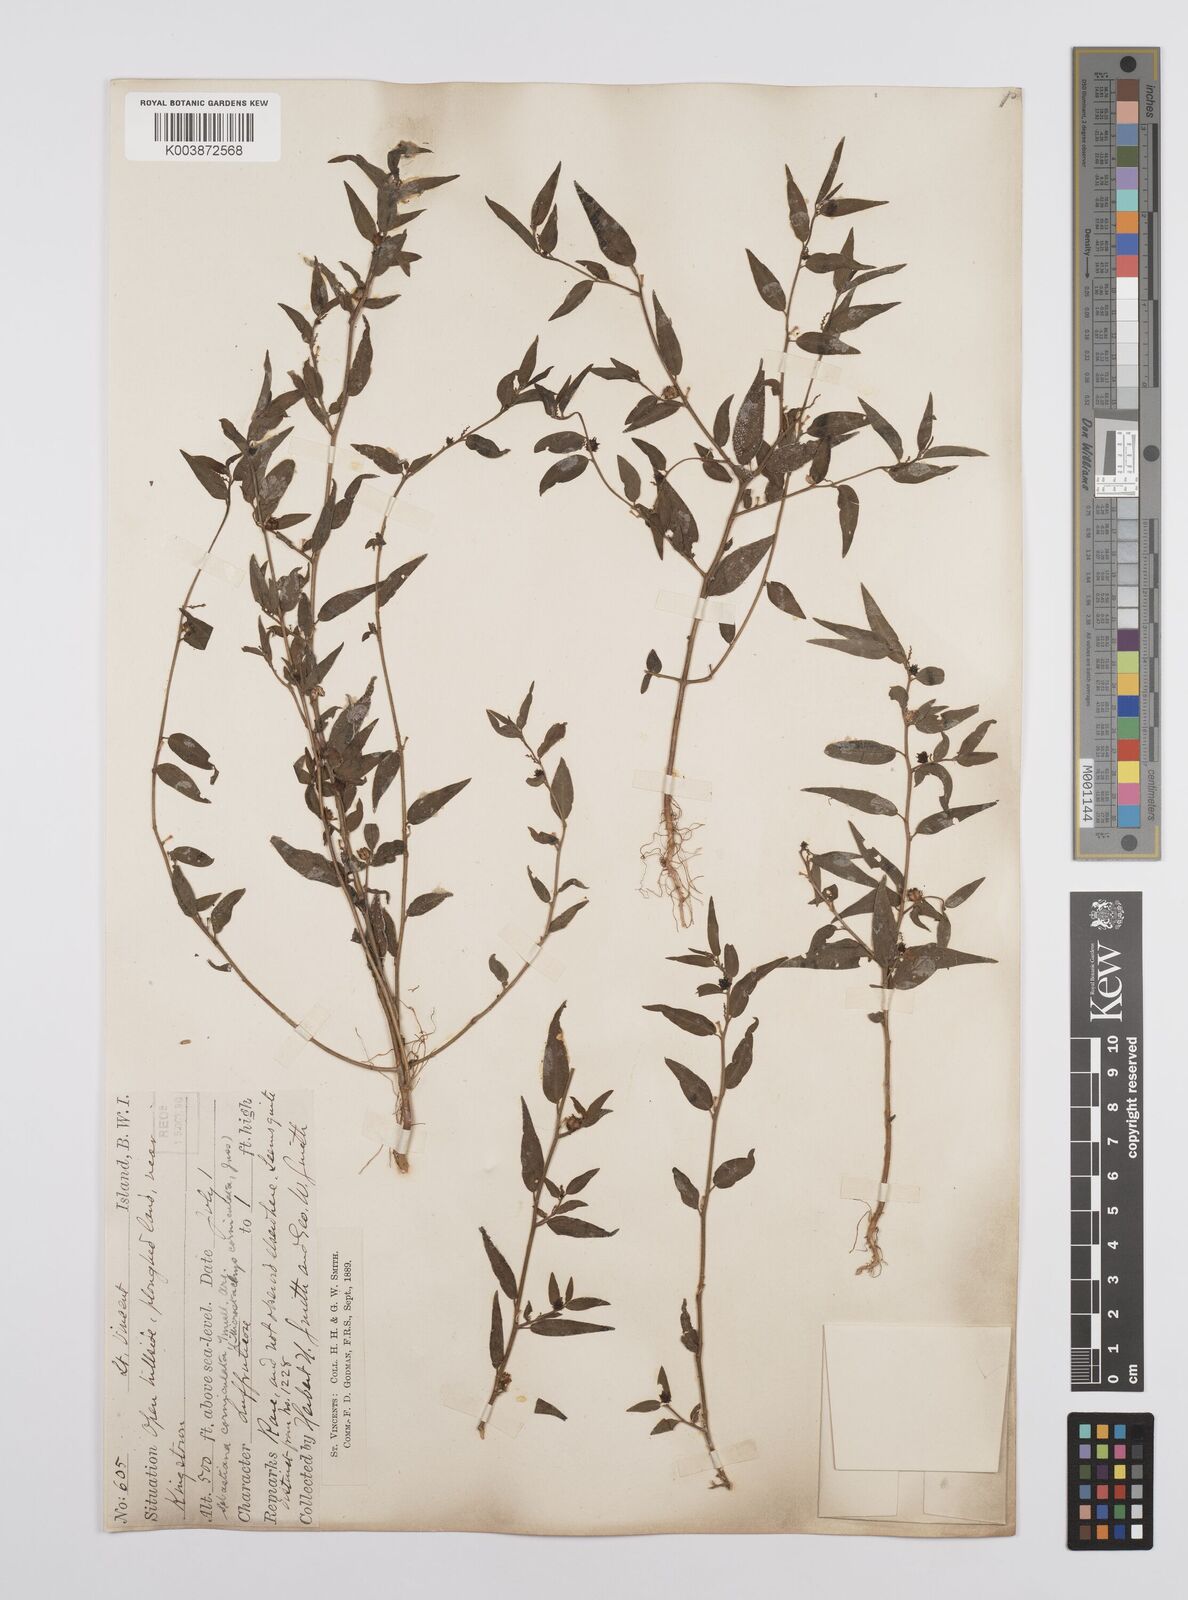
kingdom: Plantae
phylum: Tracheophyta
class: Magnoliopsida
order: Malpighiales
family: Euphorbiaceae
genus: Microstachys
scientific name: Microstachys corniculata
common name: Hato tejas
